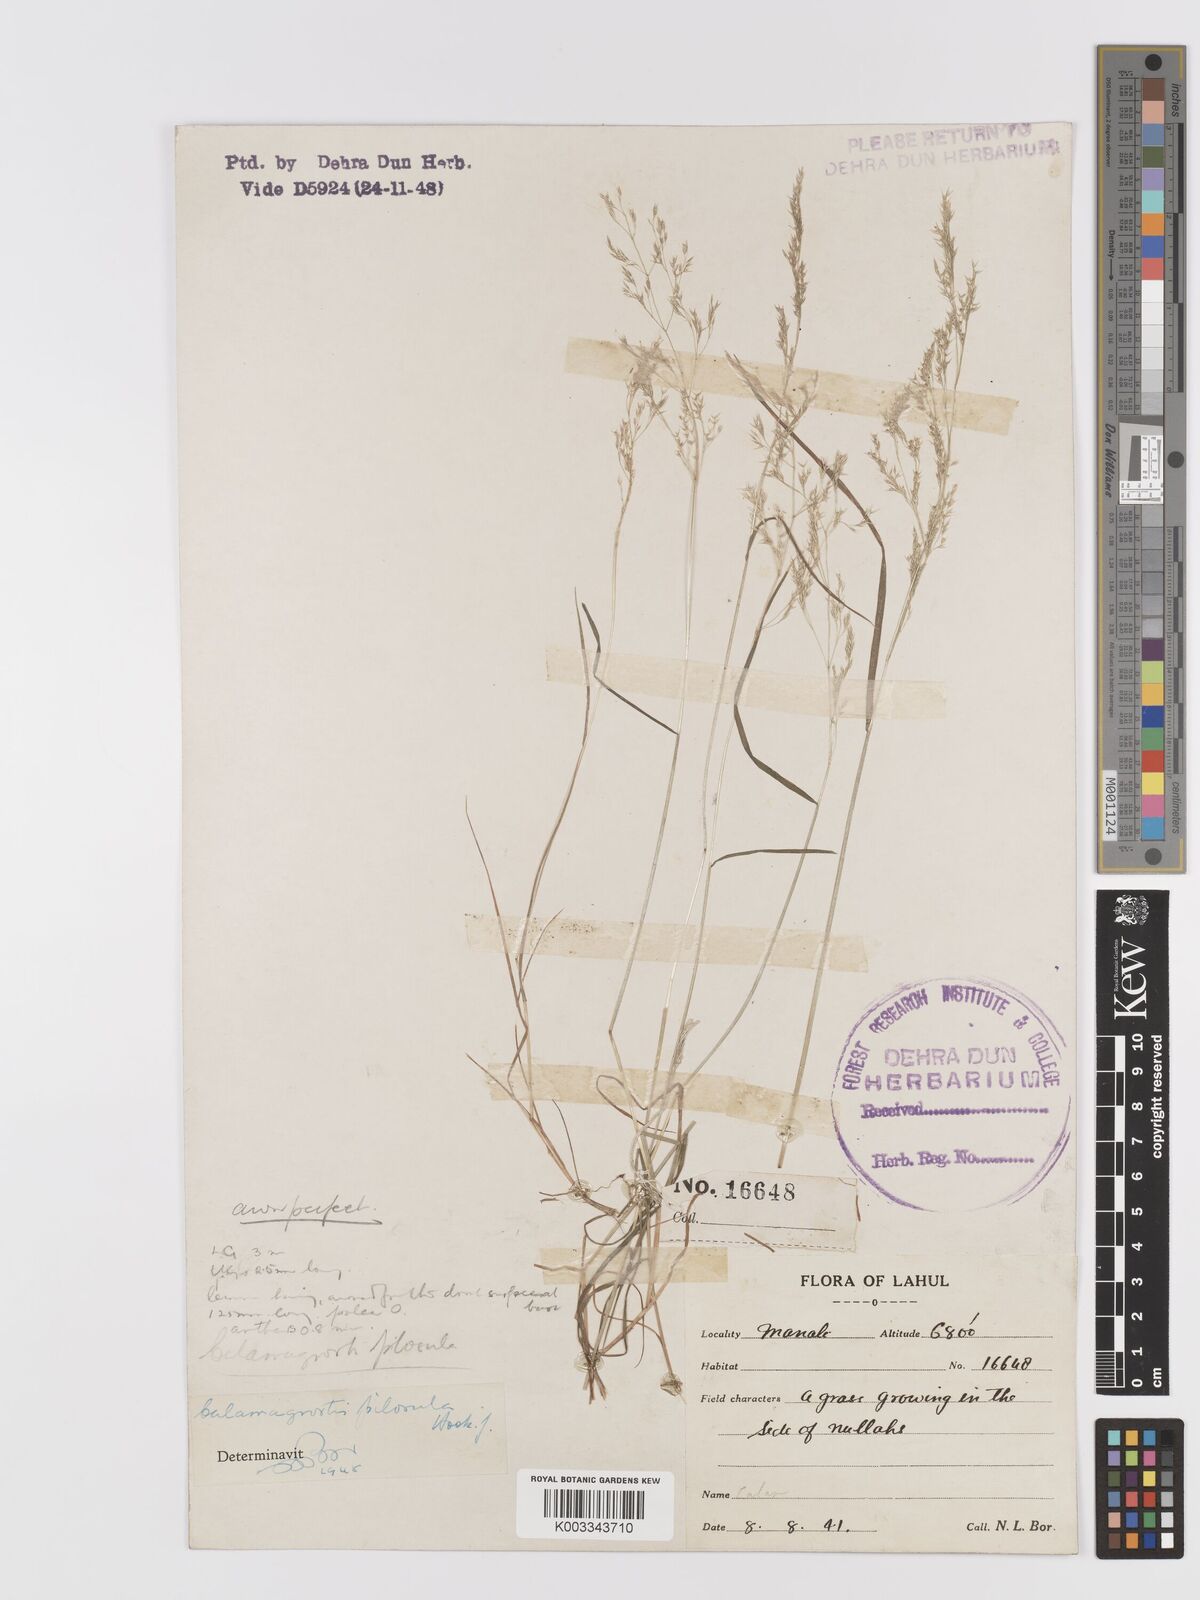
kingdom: Plantae
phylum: Tracheophyta
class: Liliopsida
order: Poales
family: Poaceae
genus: Agrostis
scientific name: Agrostis pilosula
